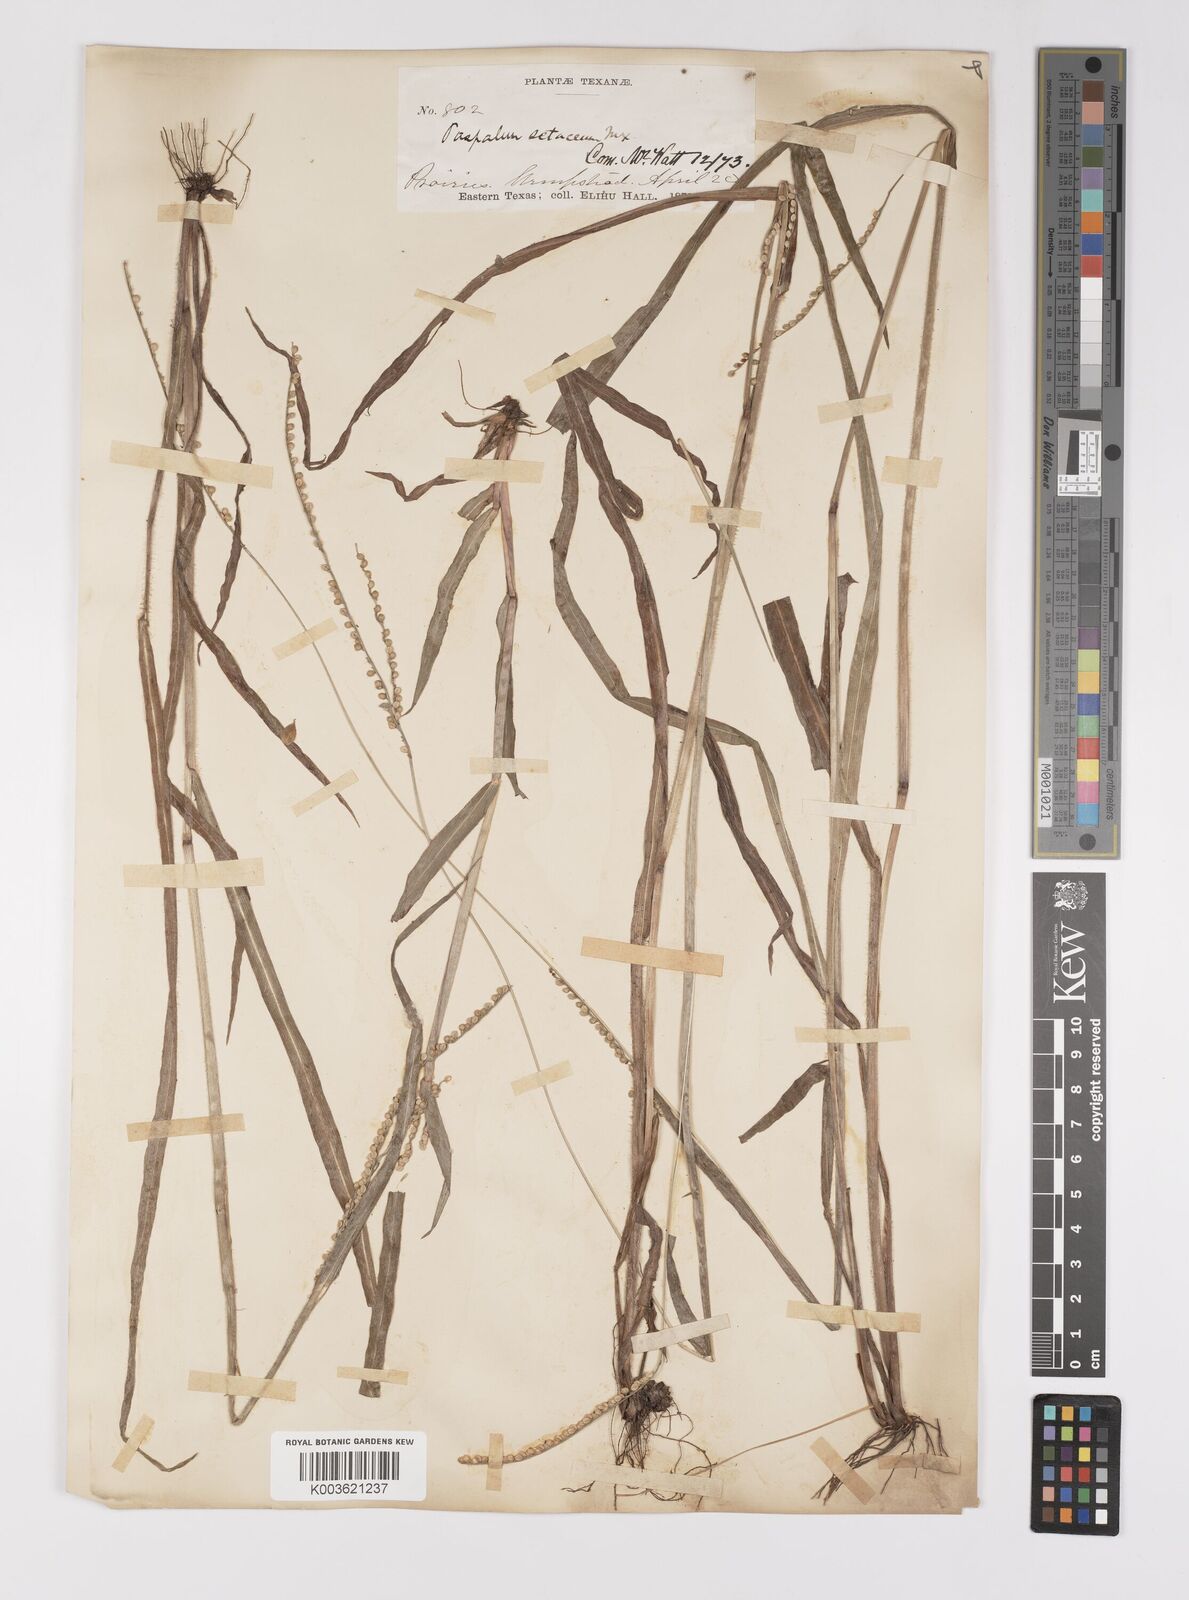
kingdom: Plantae
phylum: Tracheophyta
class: Liliopsida
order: Poales
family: Poaceae
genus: Paspalum
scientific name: Paspalum setaceum
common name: Slender paspalum
